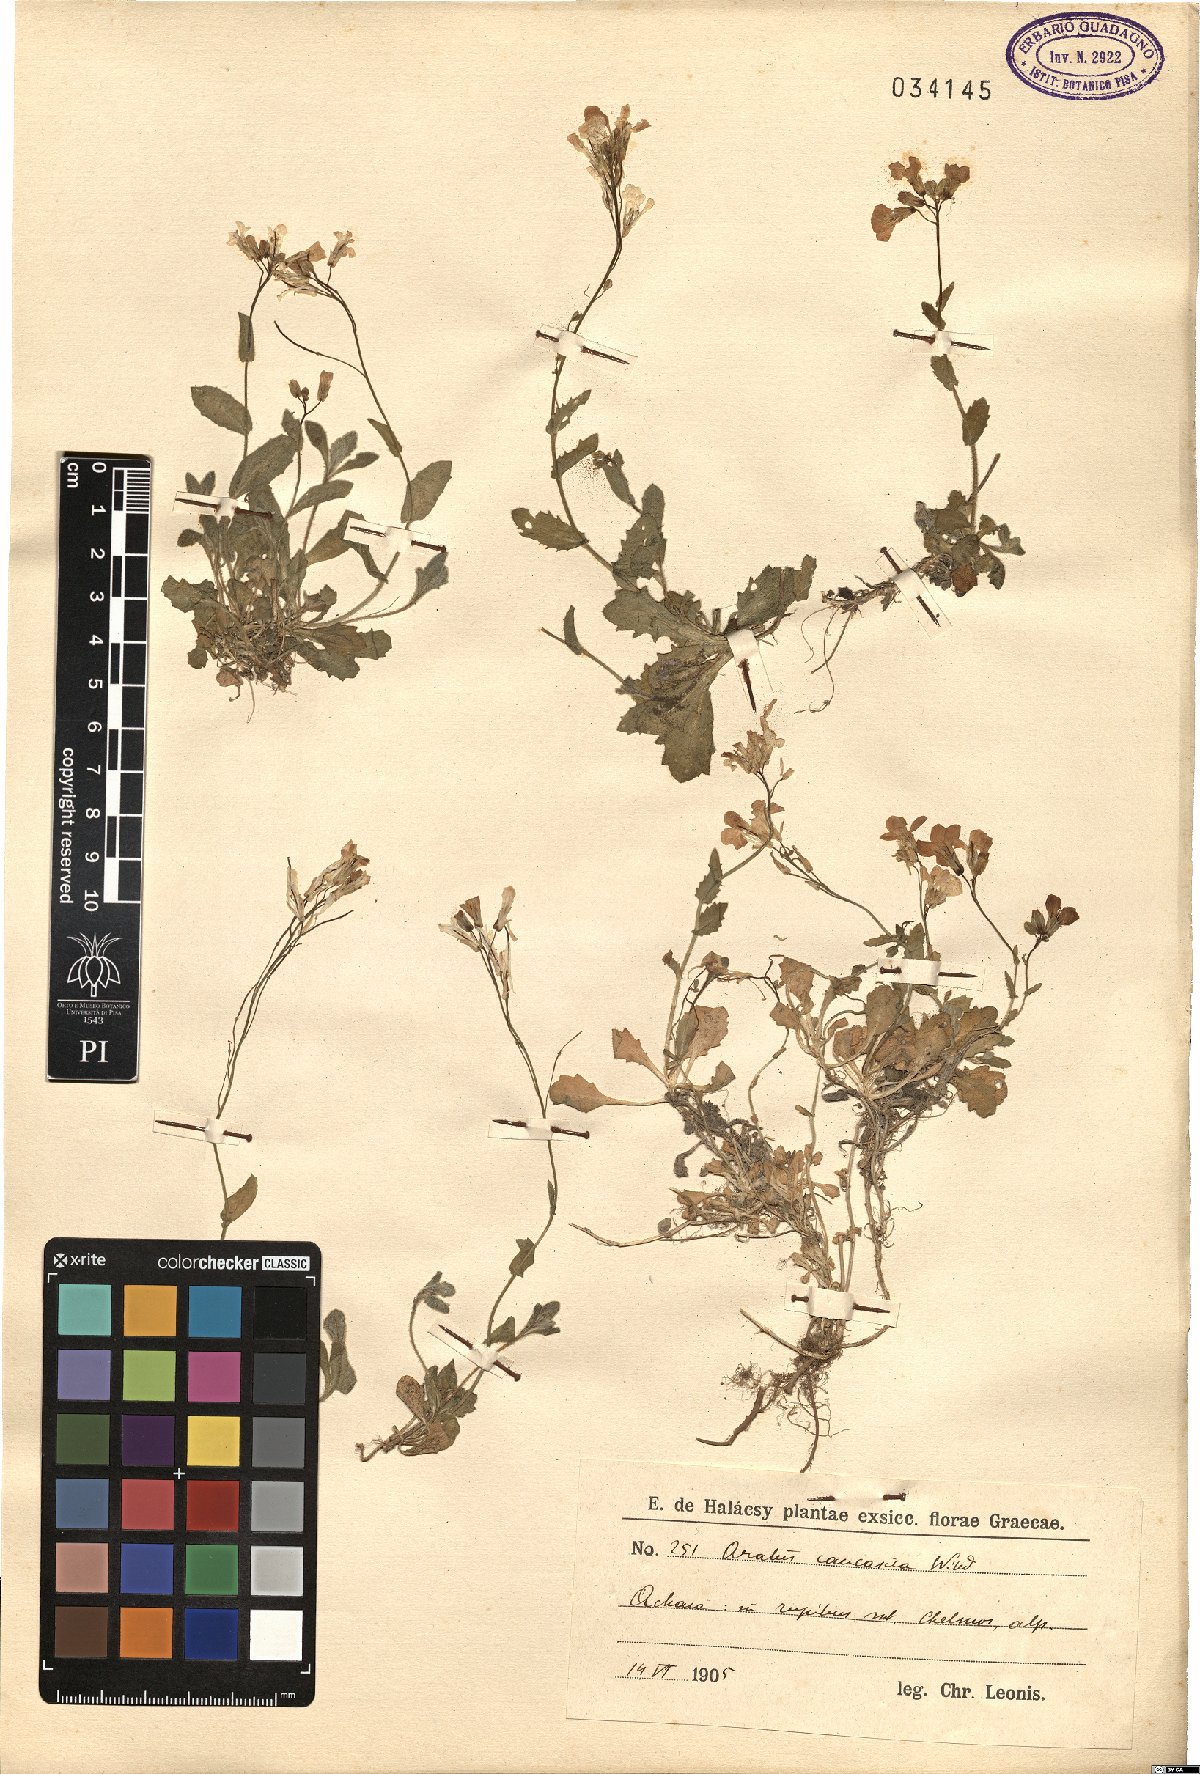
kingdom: Plantae
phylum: Tracheophyta
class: Magnoliopsida
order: Brassicales
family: Brassicaceae
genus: Arabis
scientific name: Arabis caucasica
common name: Gray rockcress
